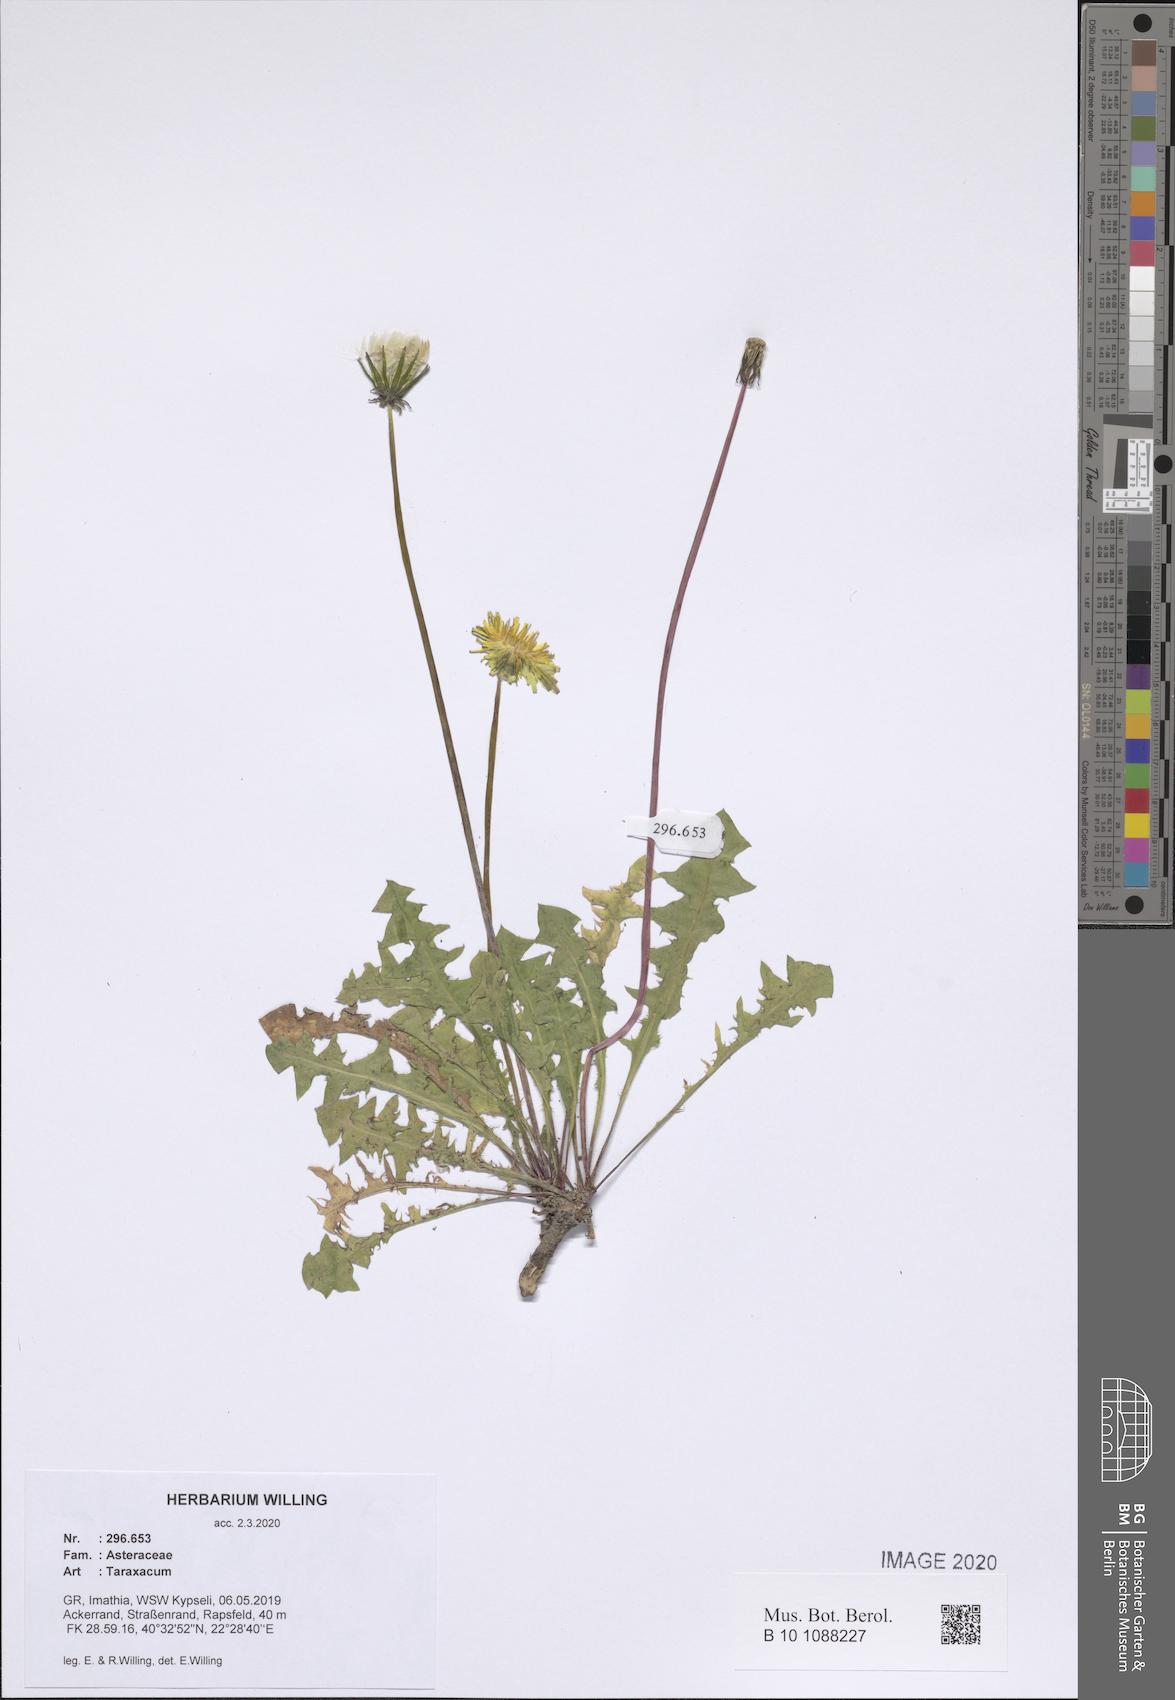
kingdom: Plantae
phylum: Tracheophyta
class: Magnoliopsida
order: Asterales
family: Asteraceae
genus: Taraxacum
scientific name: Taraxacum
